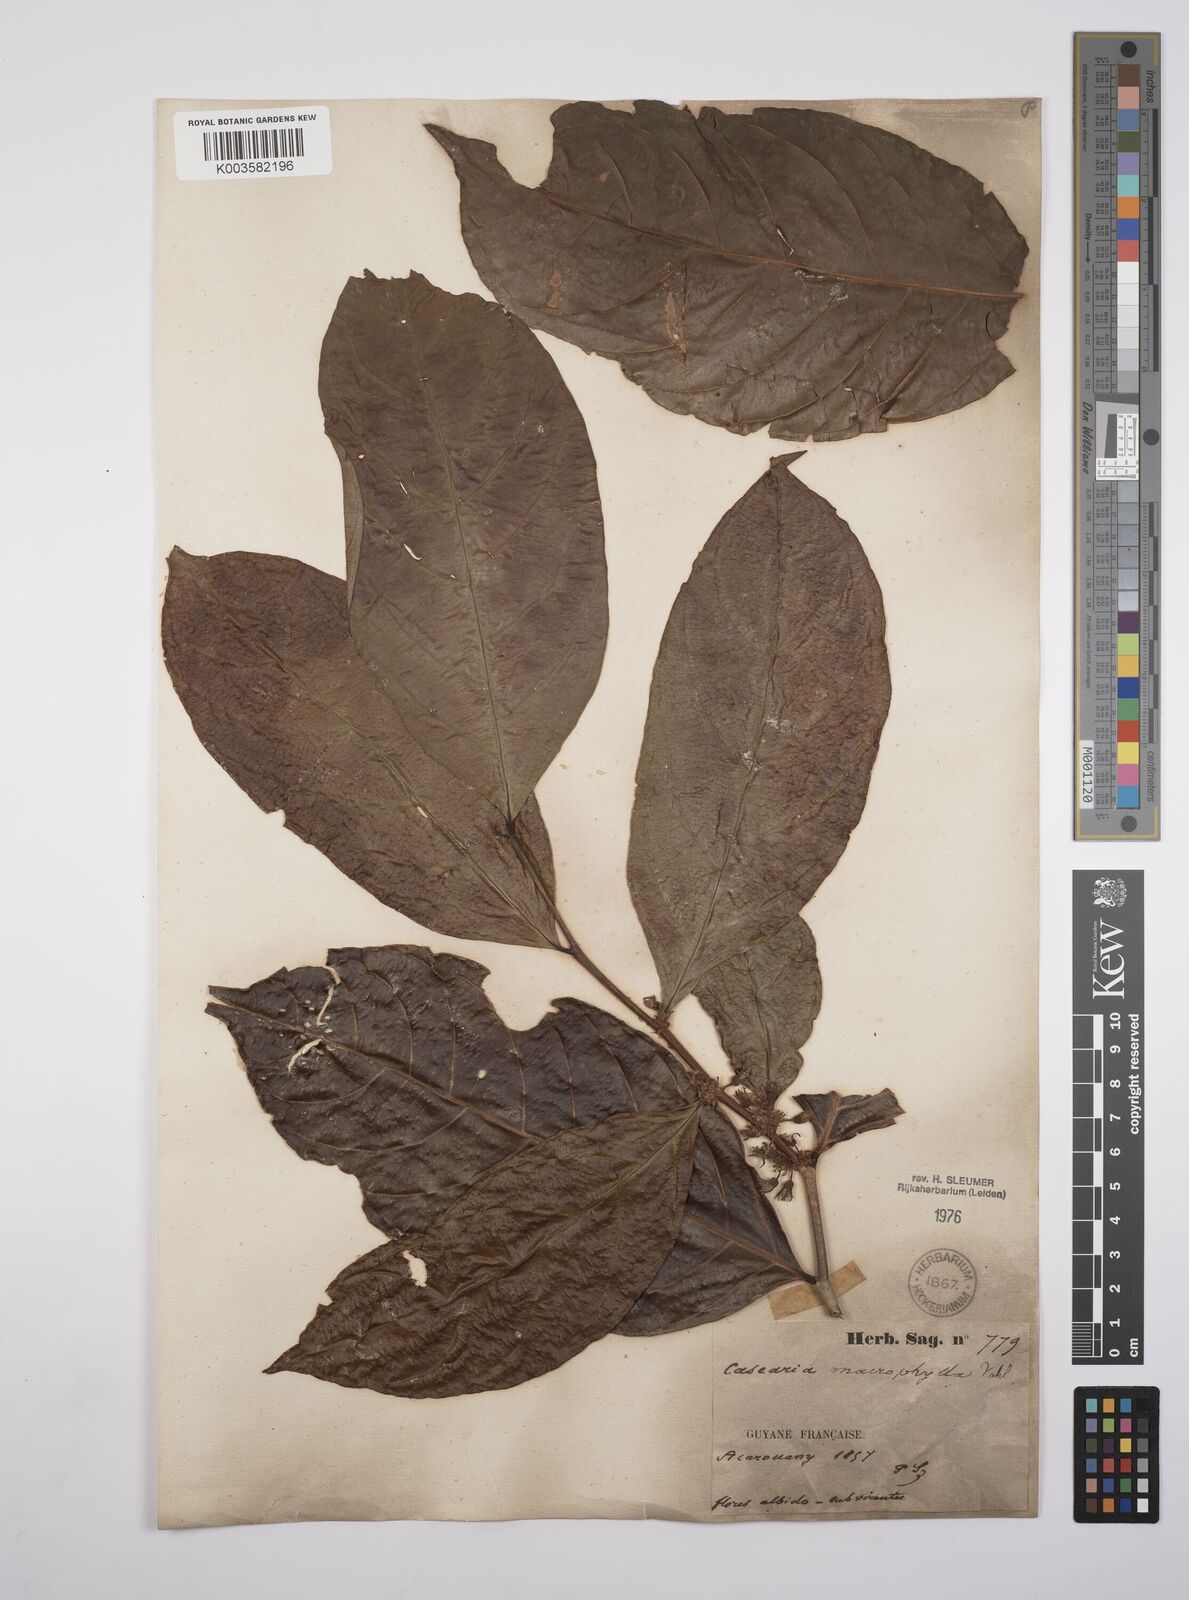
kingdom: Plantae
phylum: Tracheophyta
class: Magnoliopsida
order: Malpighiales
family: Salicaceae
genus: Casearia
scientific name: Casearia pitumba
